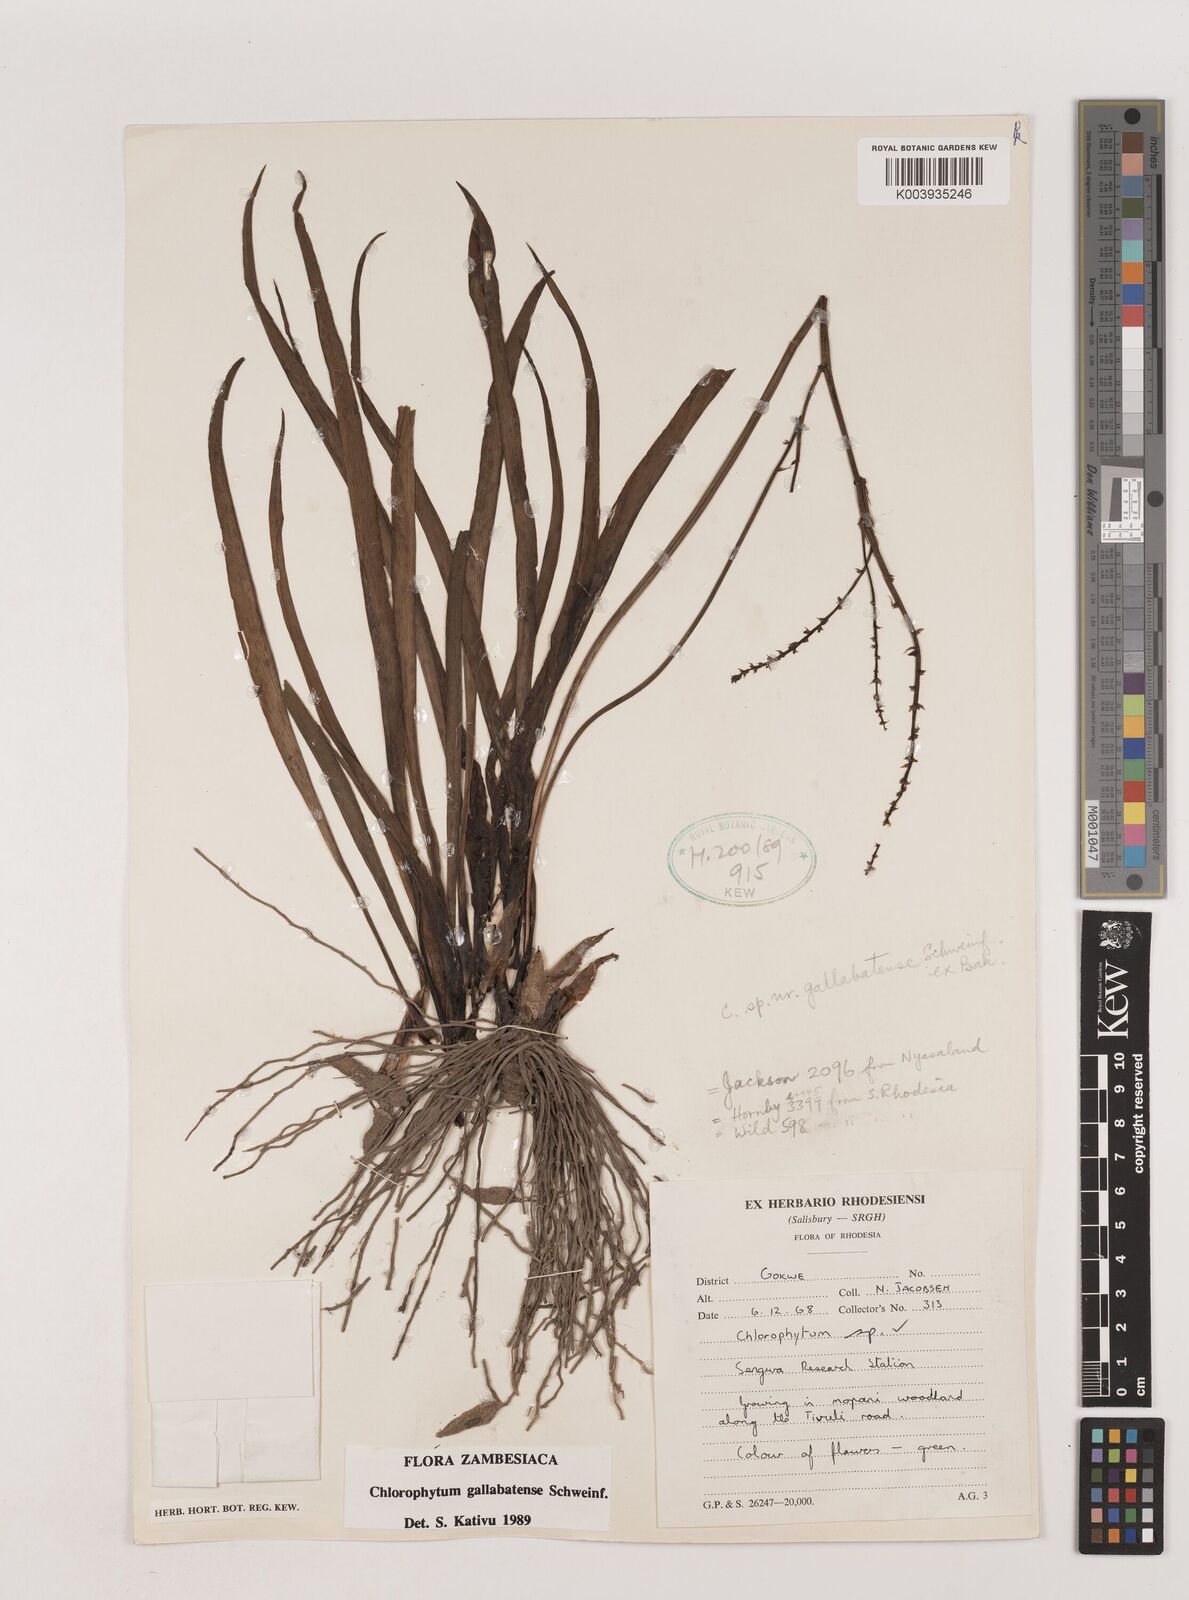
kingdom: Plantae
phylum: Tracheophyta
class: Liliopsida
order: Asparagales
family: Asparagaceae
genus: Chlorophytum
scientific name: Chlorophytum gallabatense
